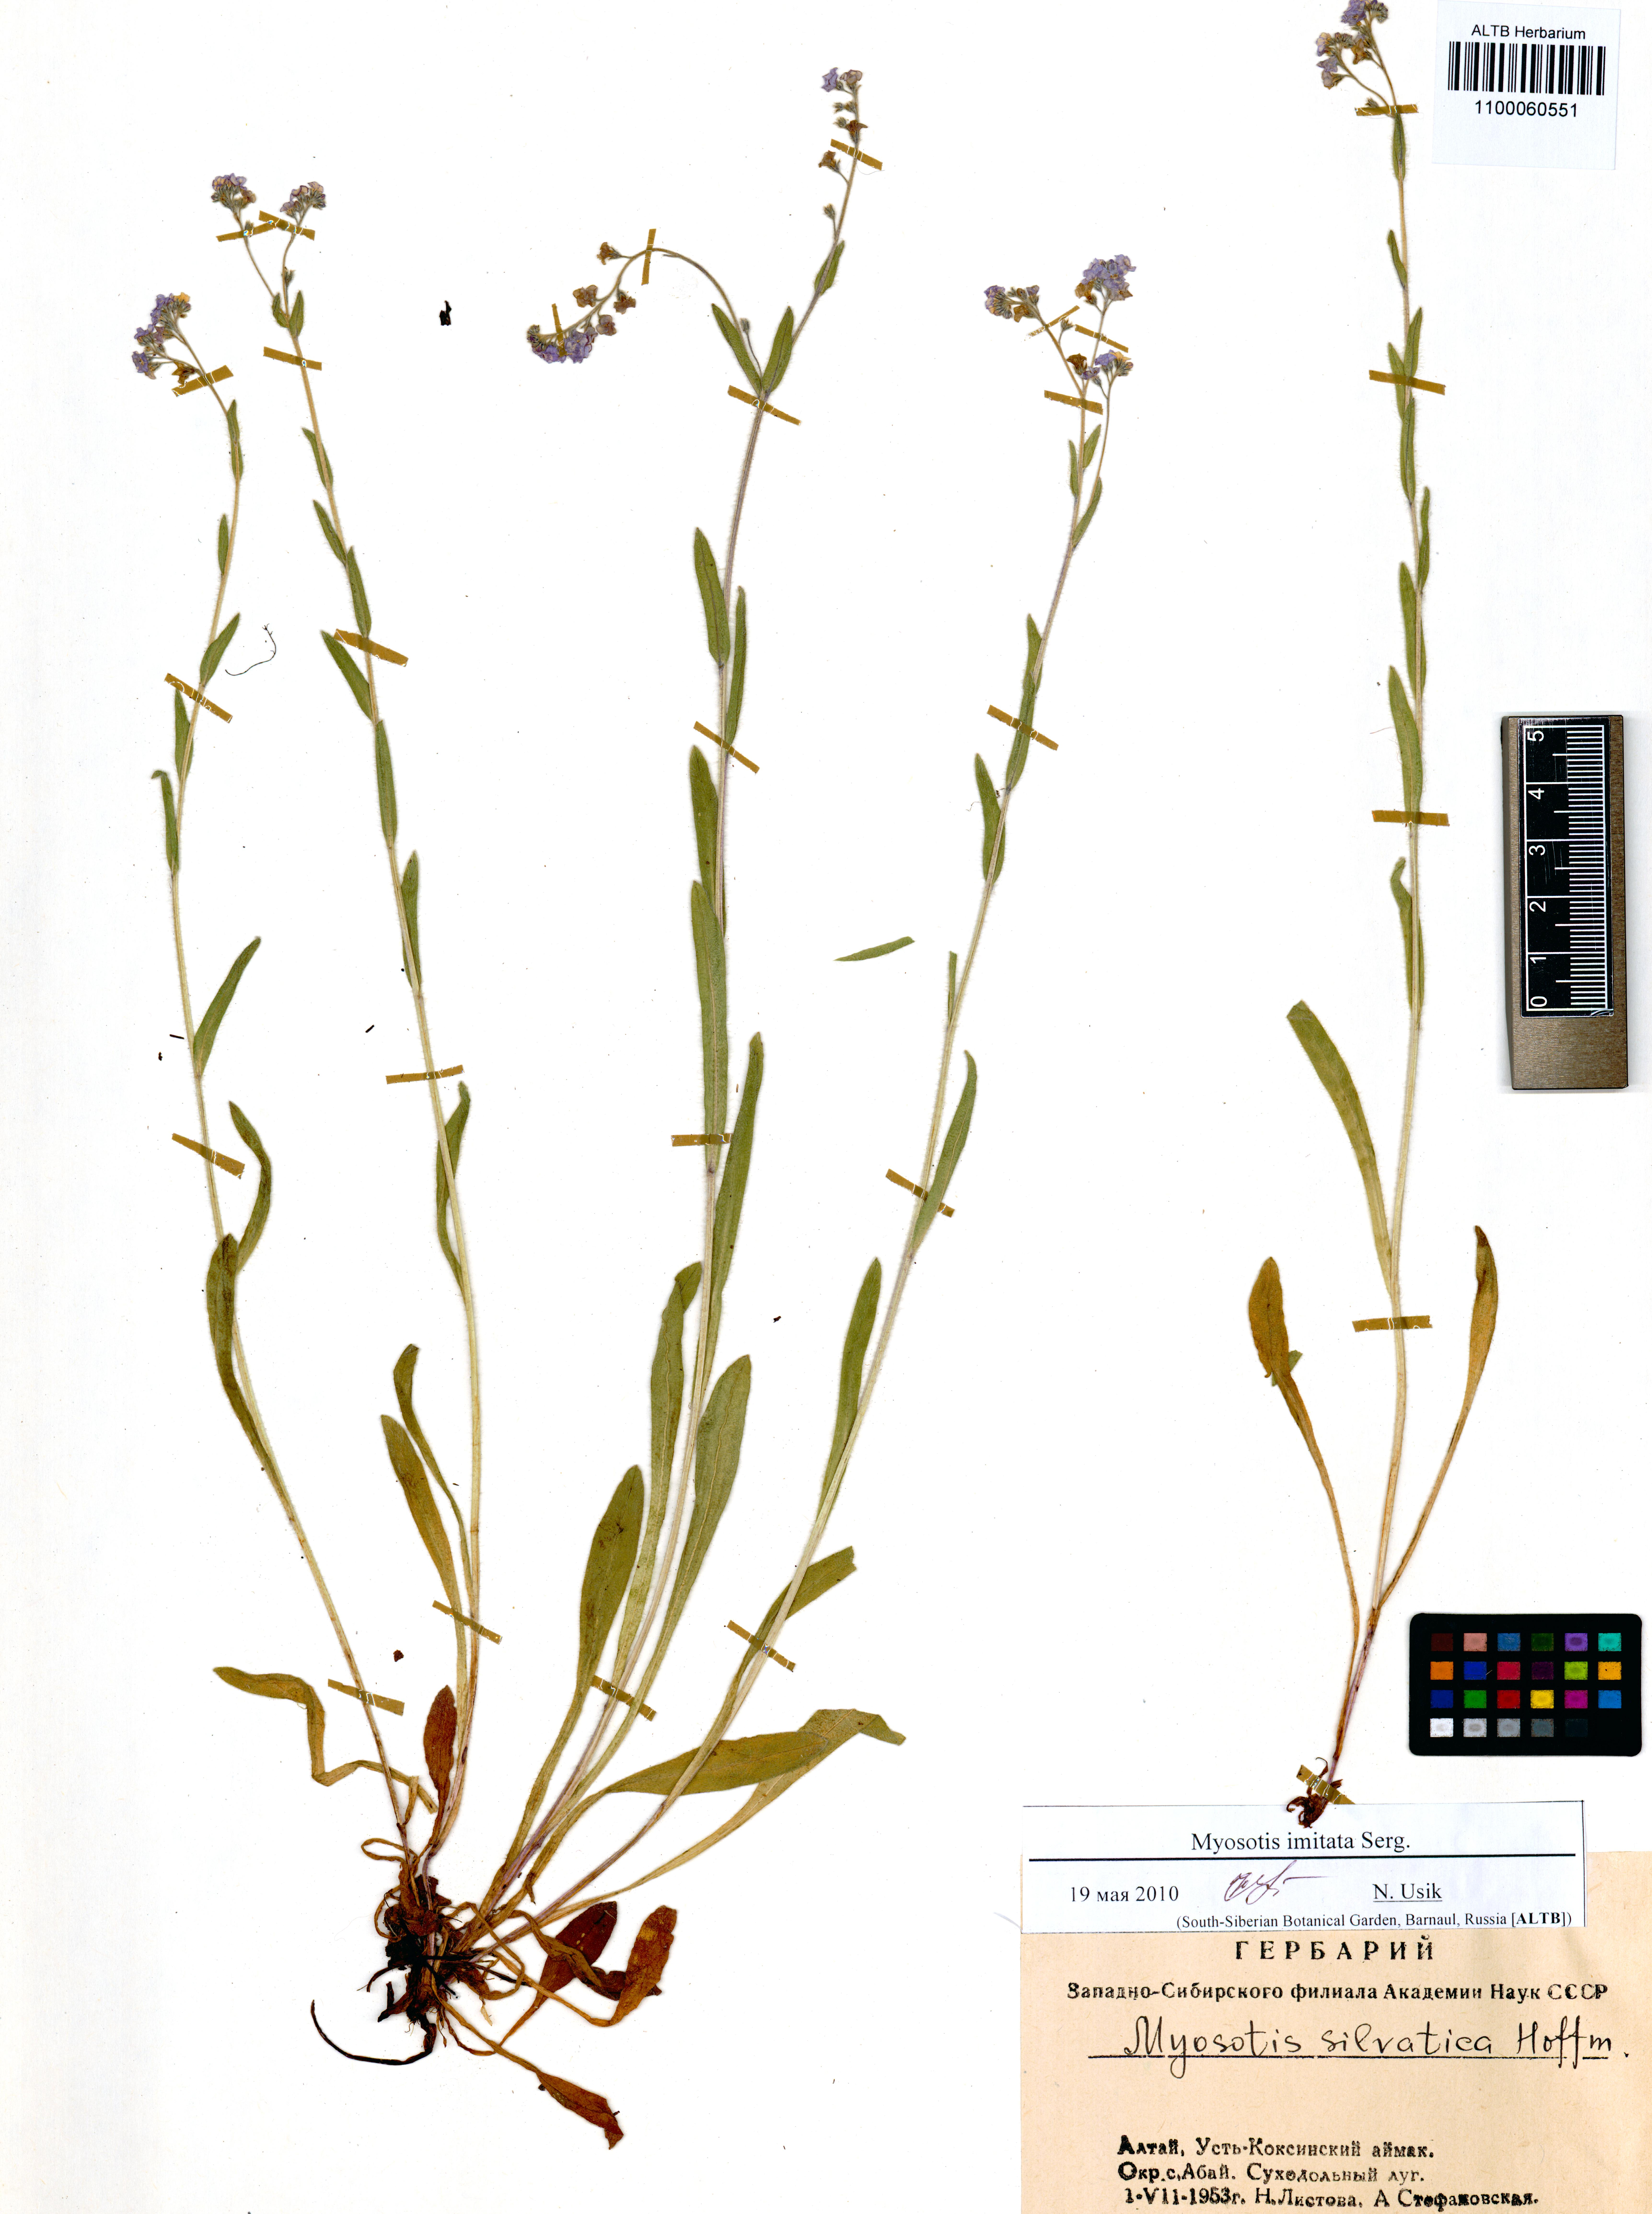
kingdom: Plantae
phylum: Tracheophyta
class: Magnoliopsida
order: Boraginales
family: Boraginaceae
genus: Myosotis
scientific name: Myosotis imitata
